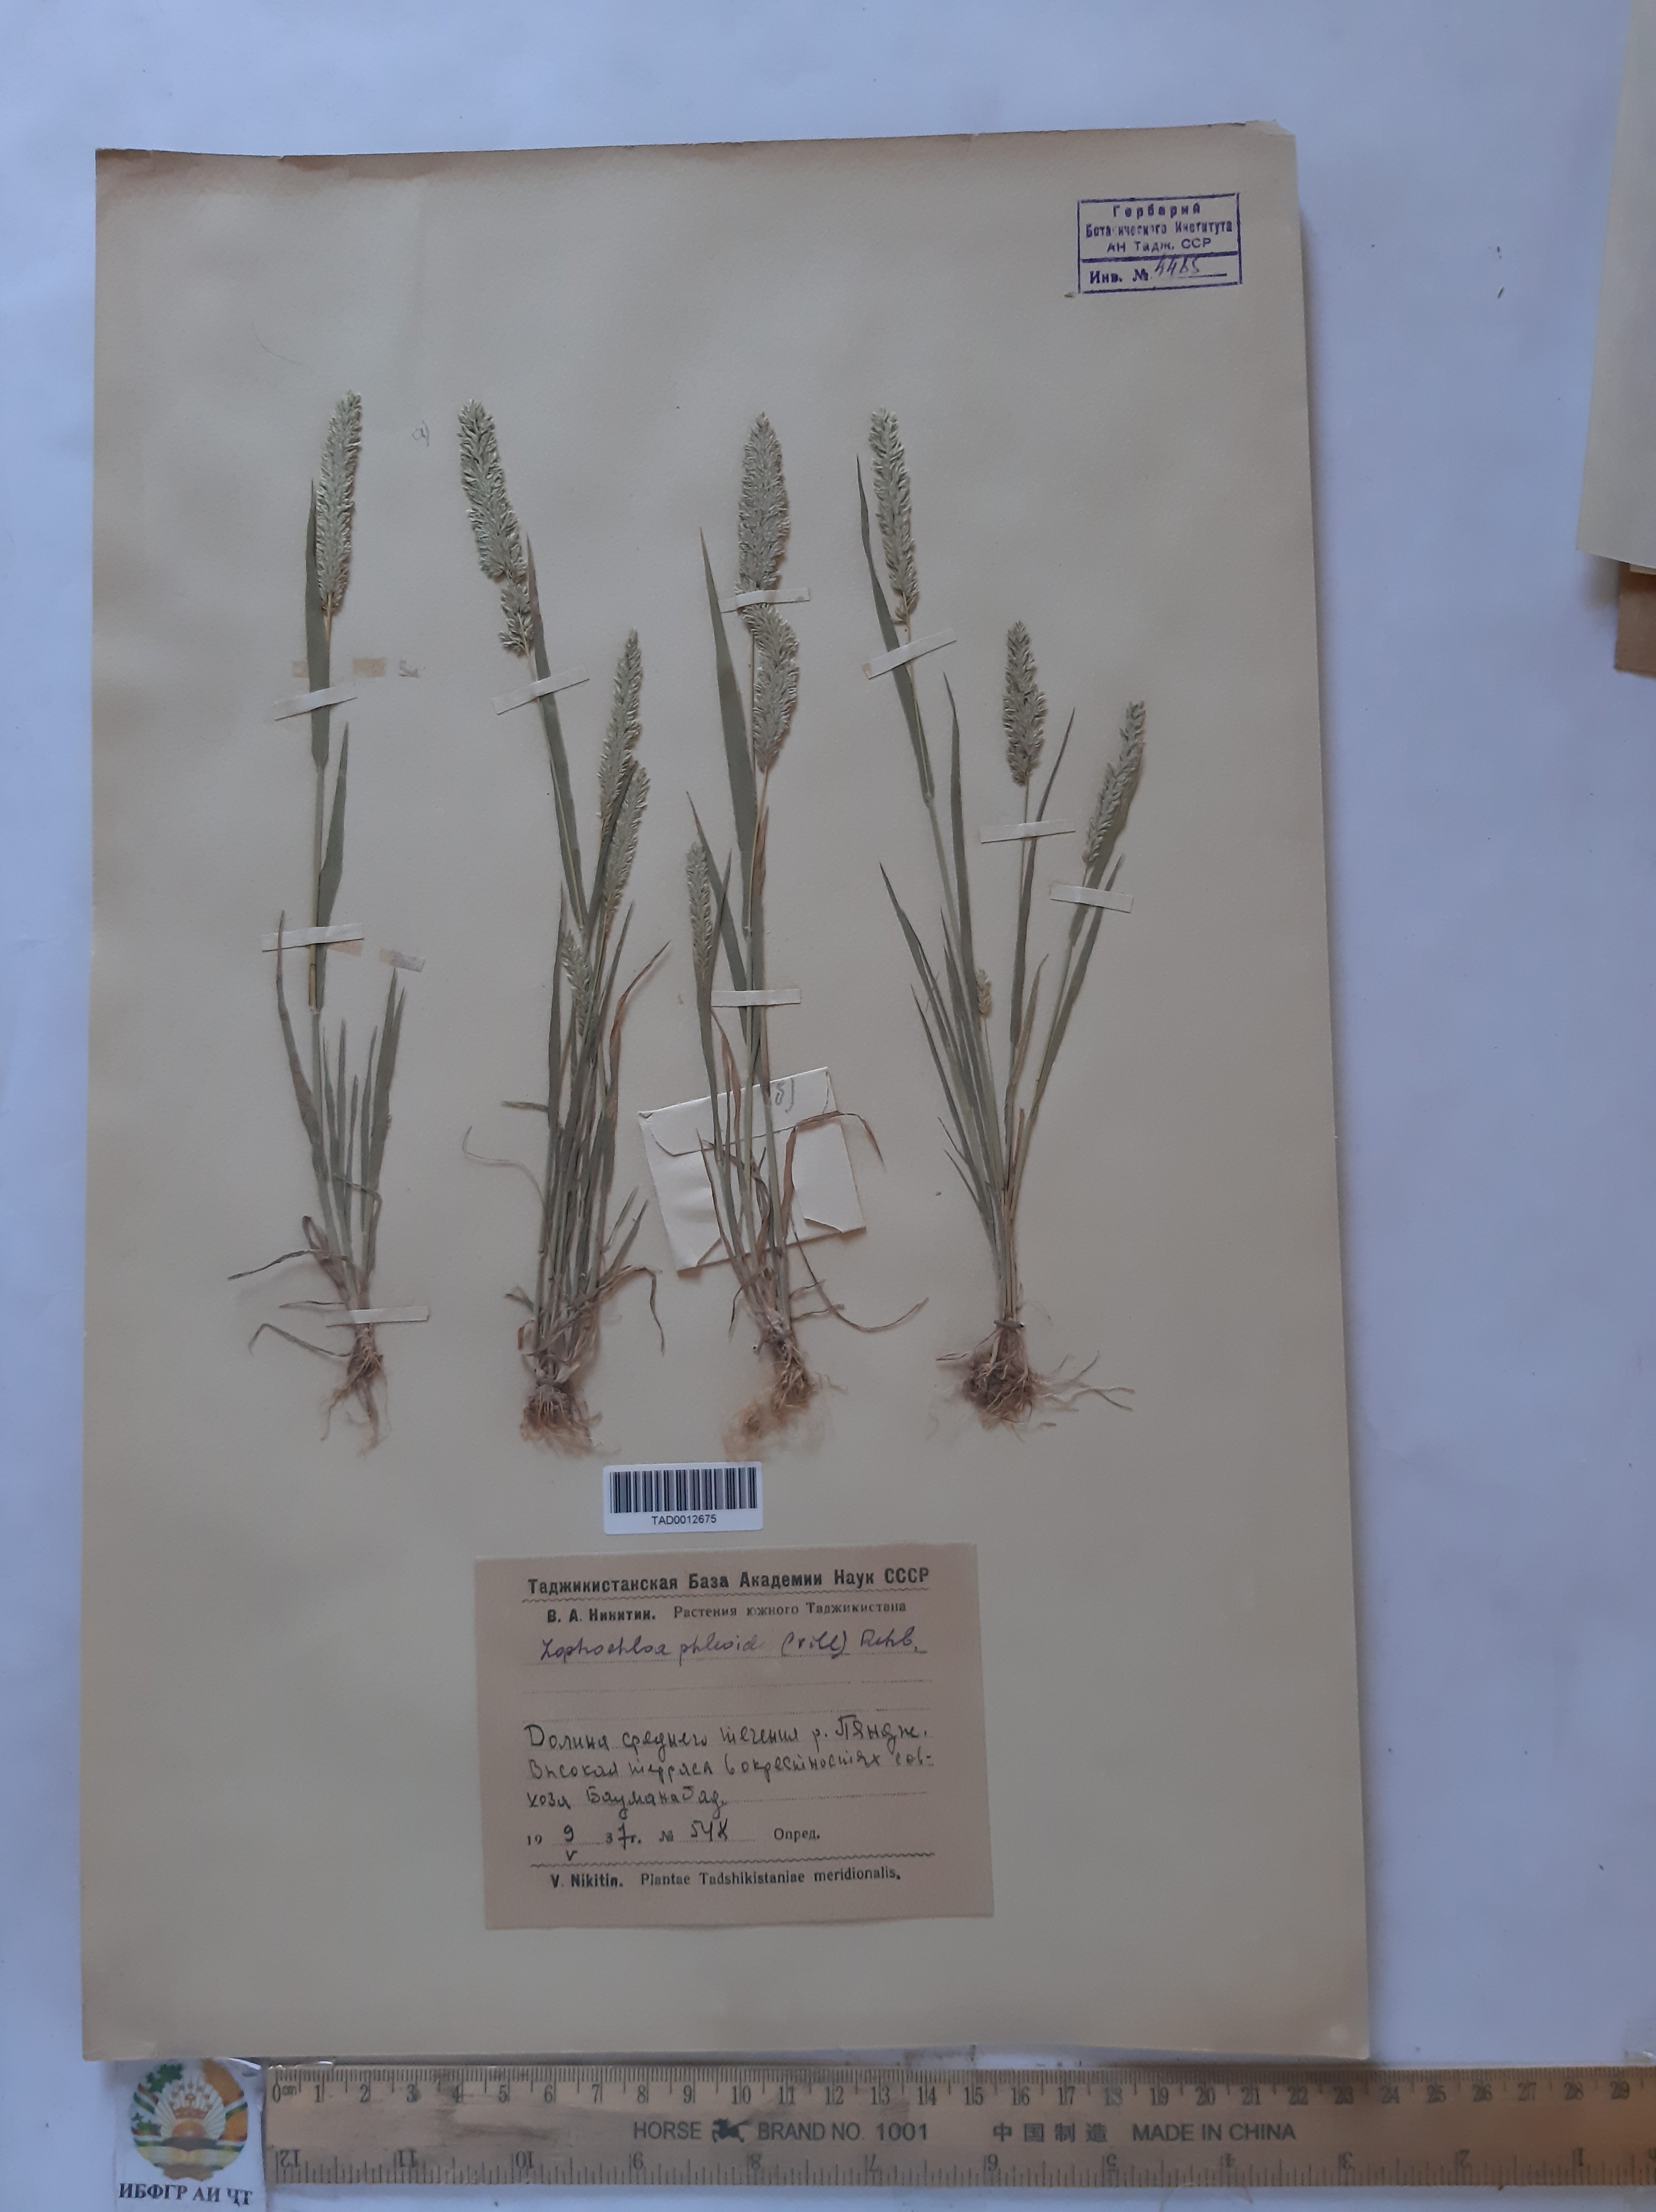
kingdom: Plantae
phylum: Tracheophyta
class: Liliopsida
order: Poales
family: Poaceae
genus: Rostraria
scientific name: Rostraria cristata
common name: Mediterranean hair-grass
